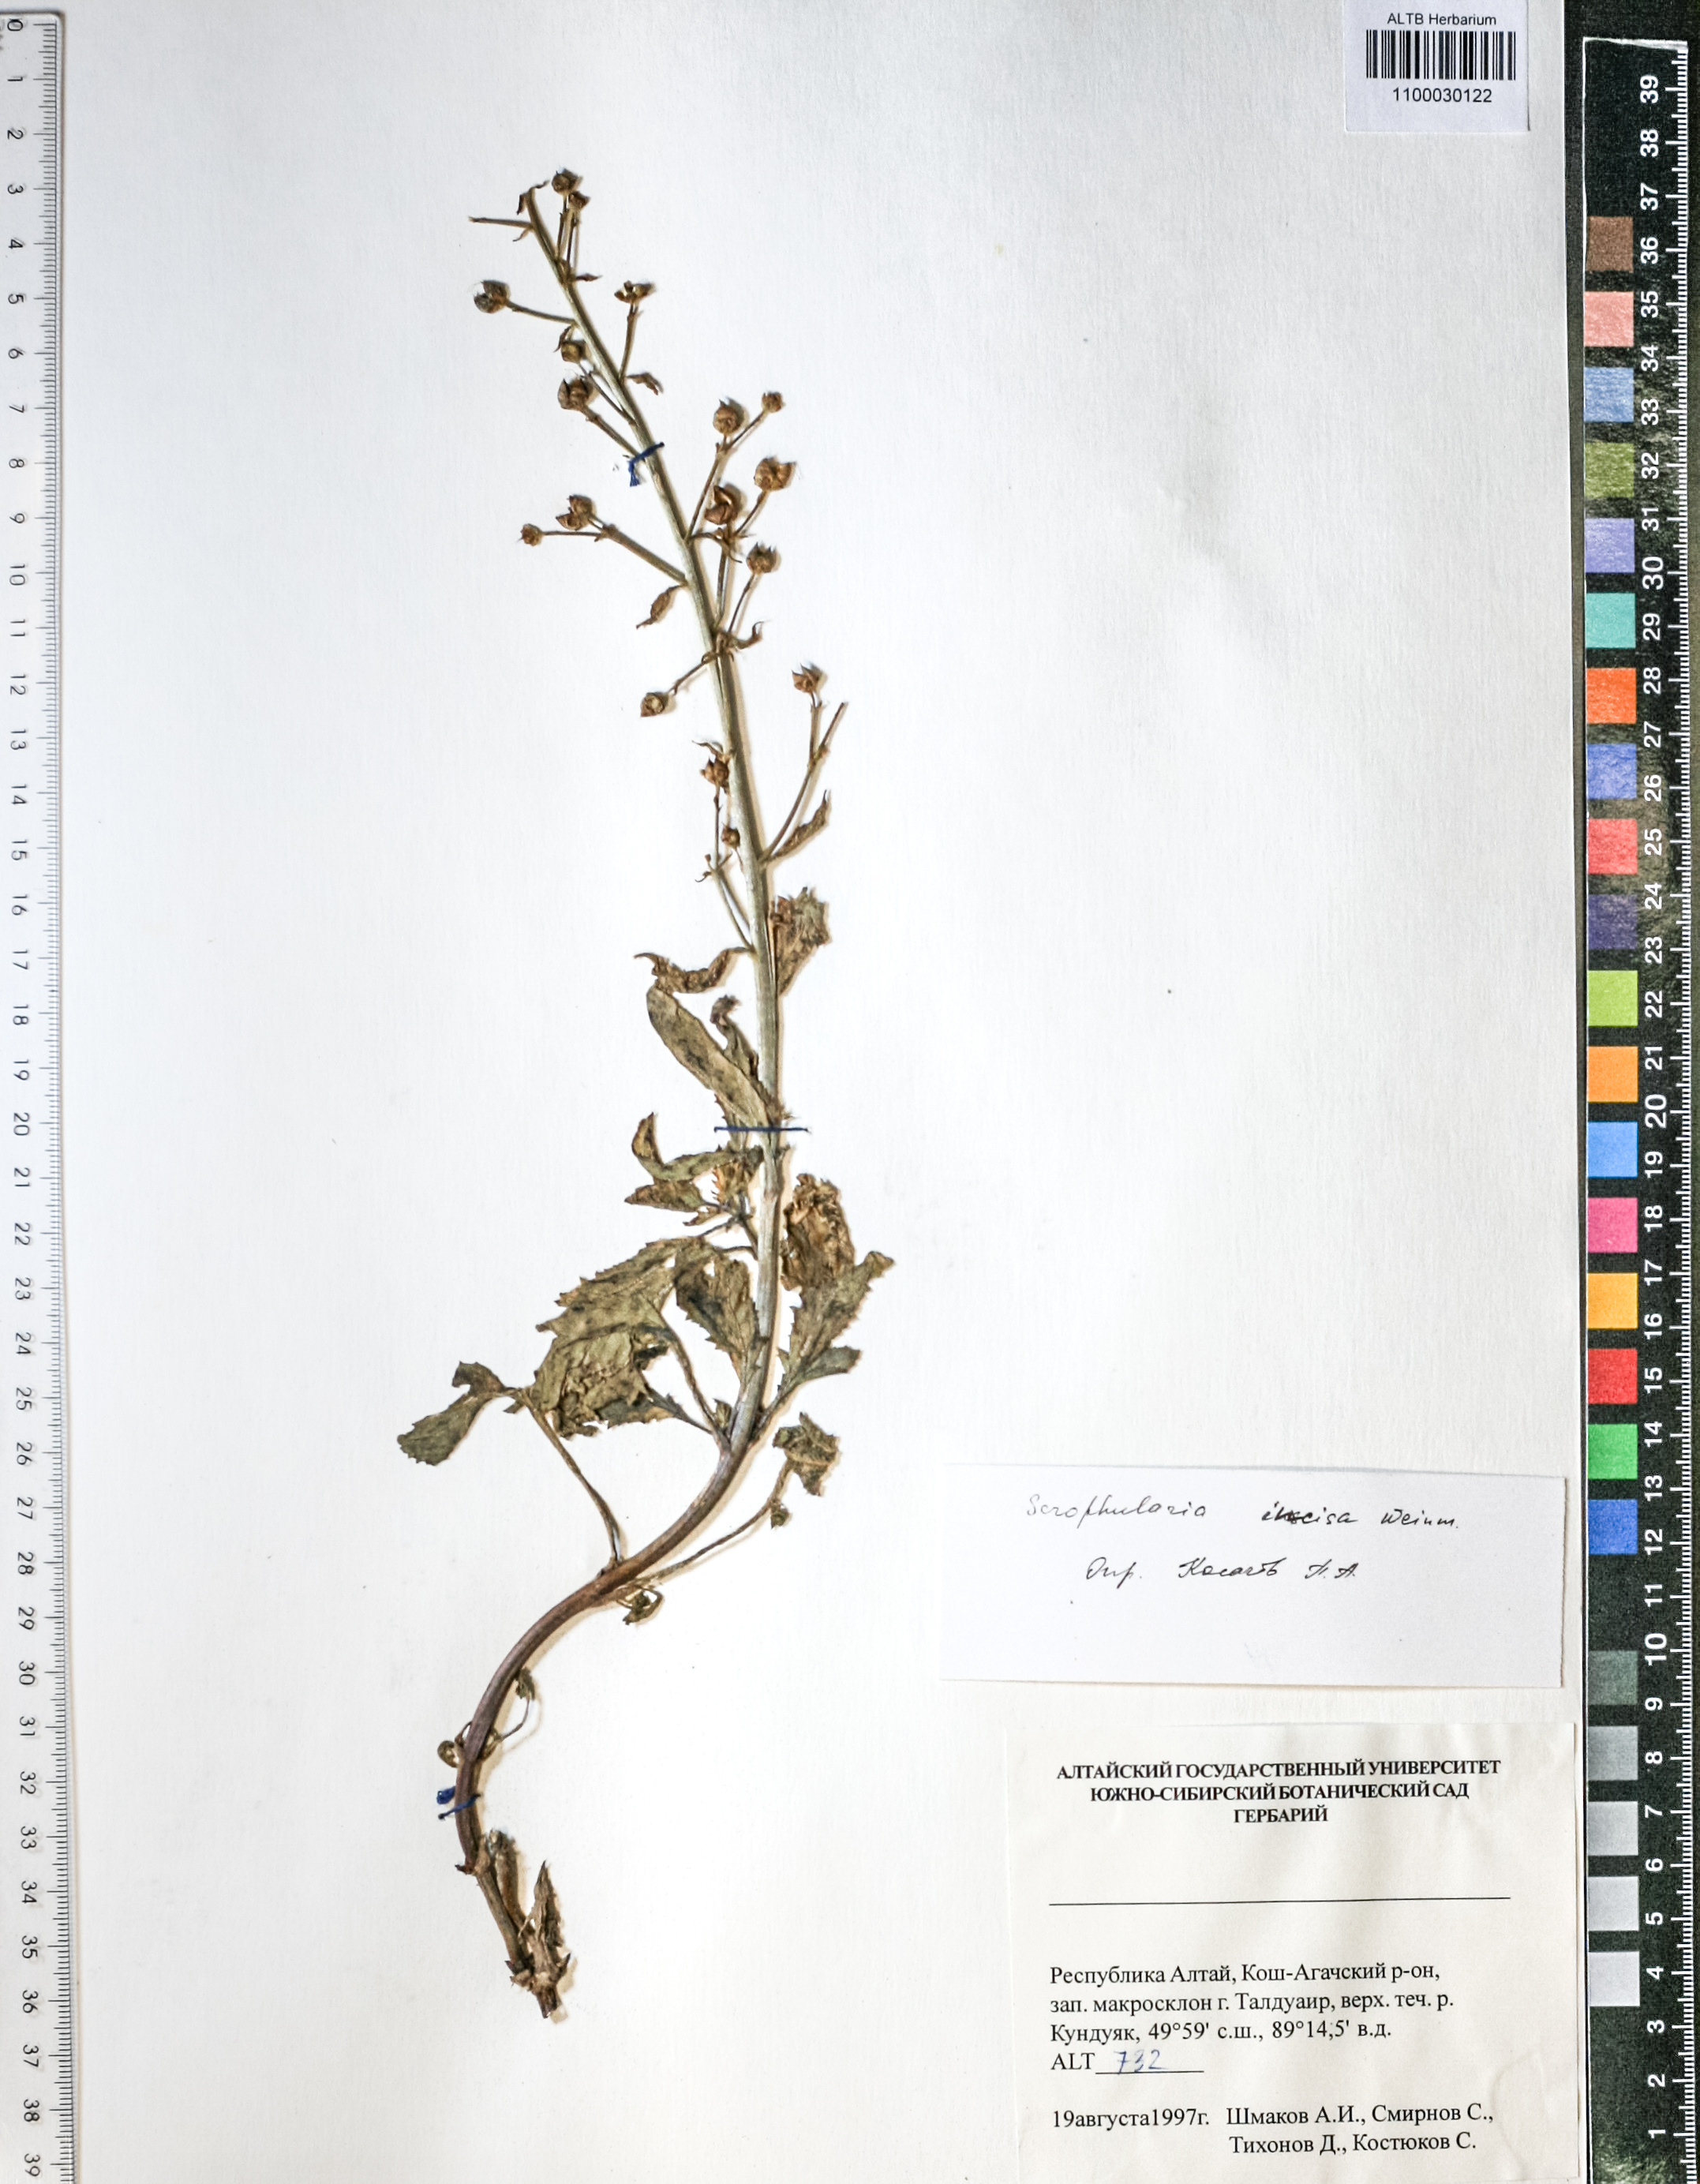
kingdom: Plantae
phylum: Tracheophyta
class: Magnoliopsida
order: Lamiales
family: Scrophulariaceae
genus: Scrophularia
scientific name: Scrophularia incisa
